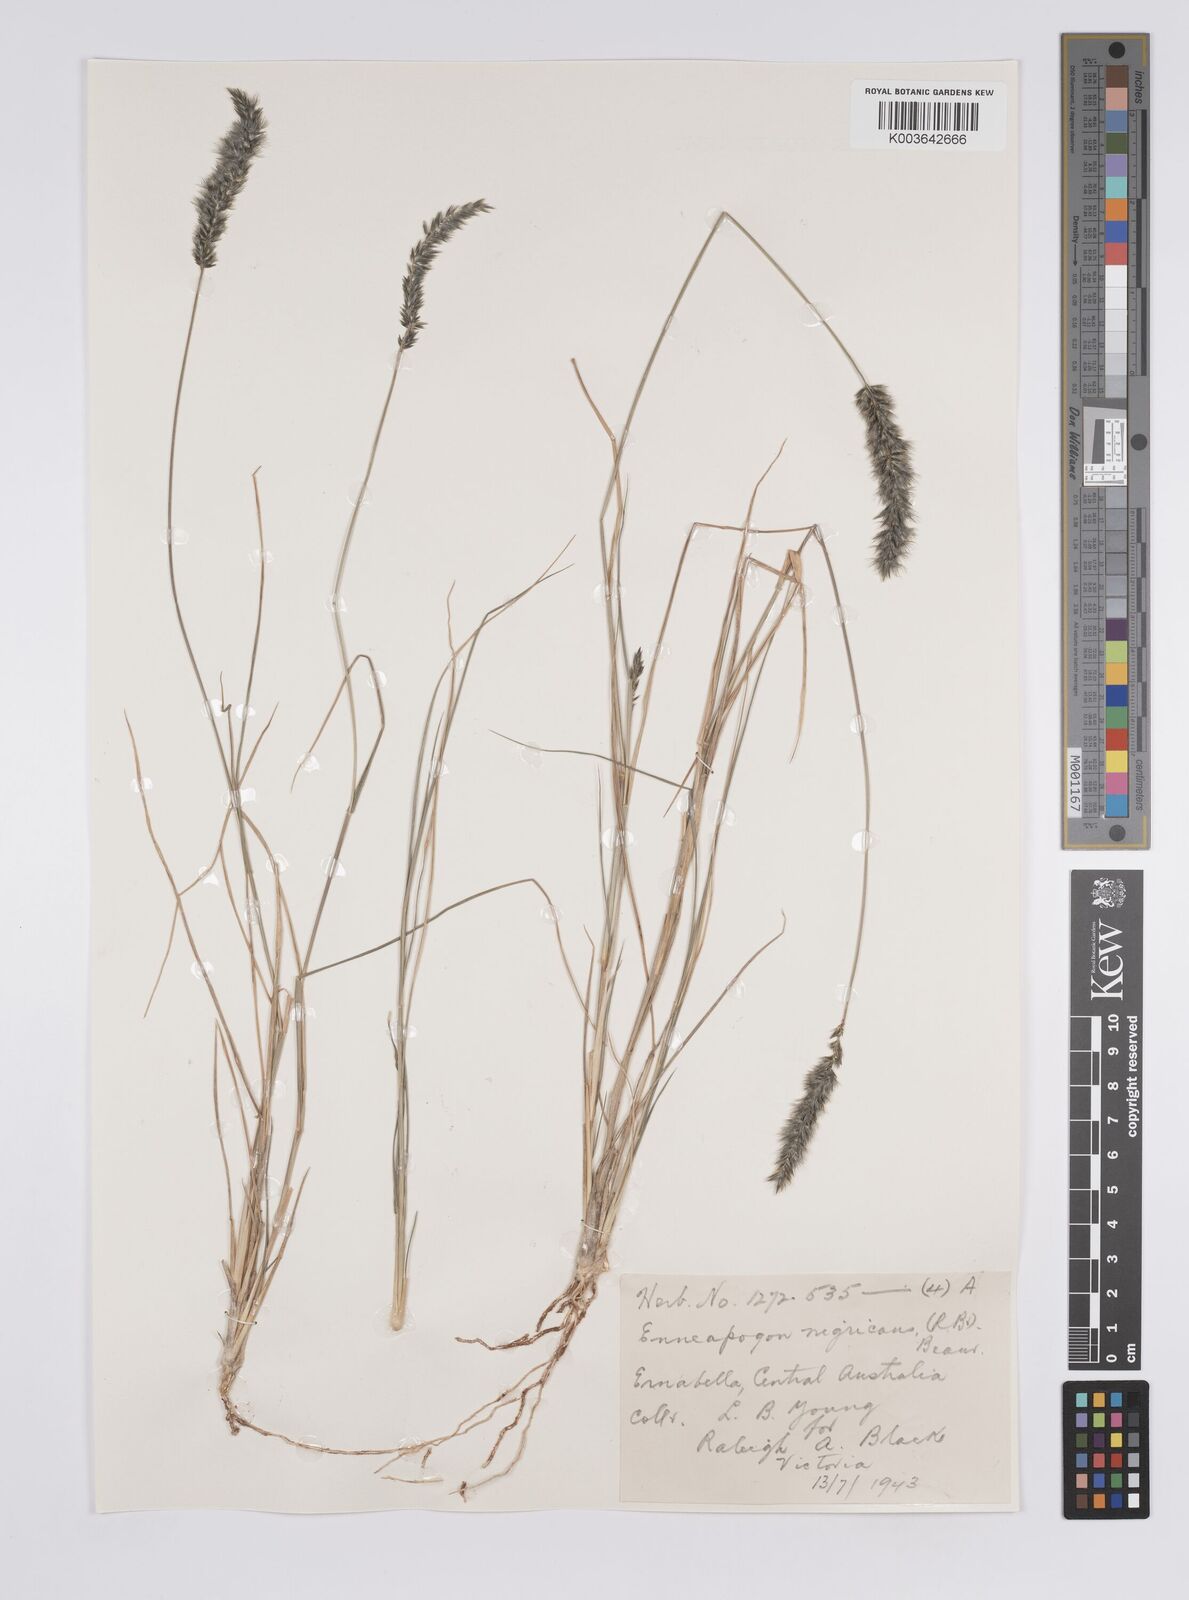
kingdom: Plantae
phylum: Tracheophyta
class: Liliopsida
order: Poales
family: Poaceae
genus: Enneapogon
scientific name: Enneapogon nigricans
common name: Pappus grass
